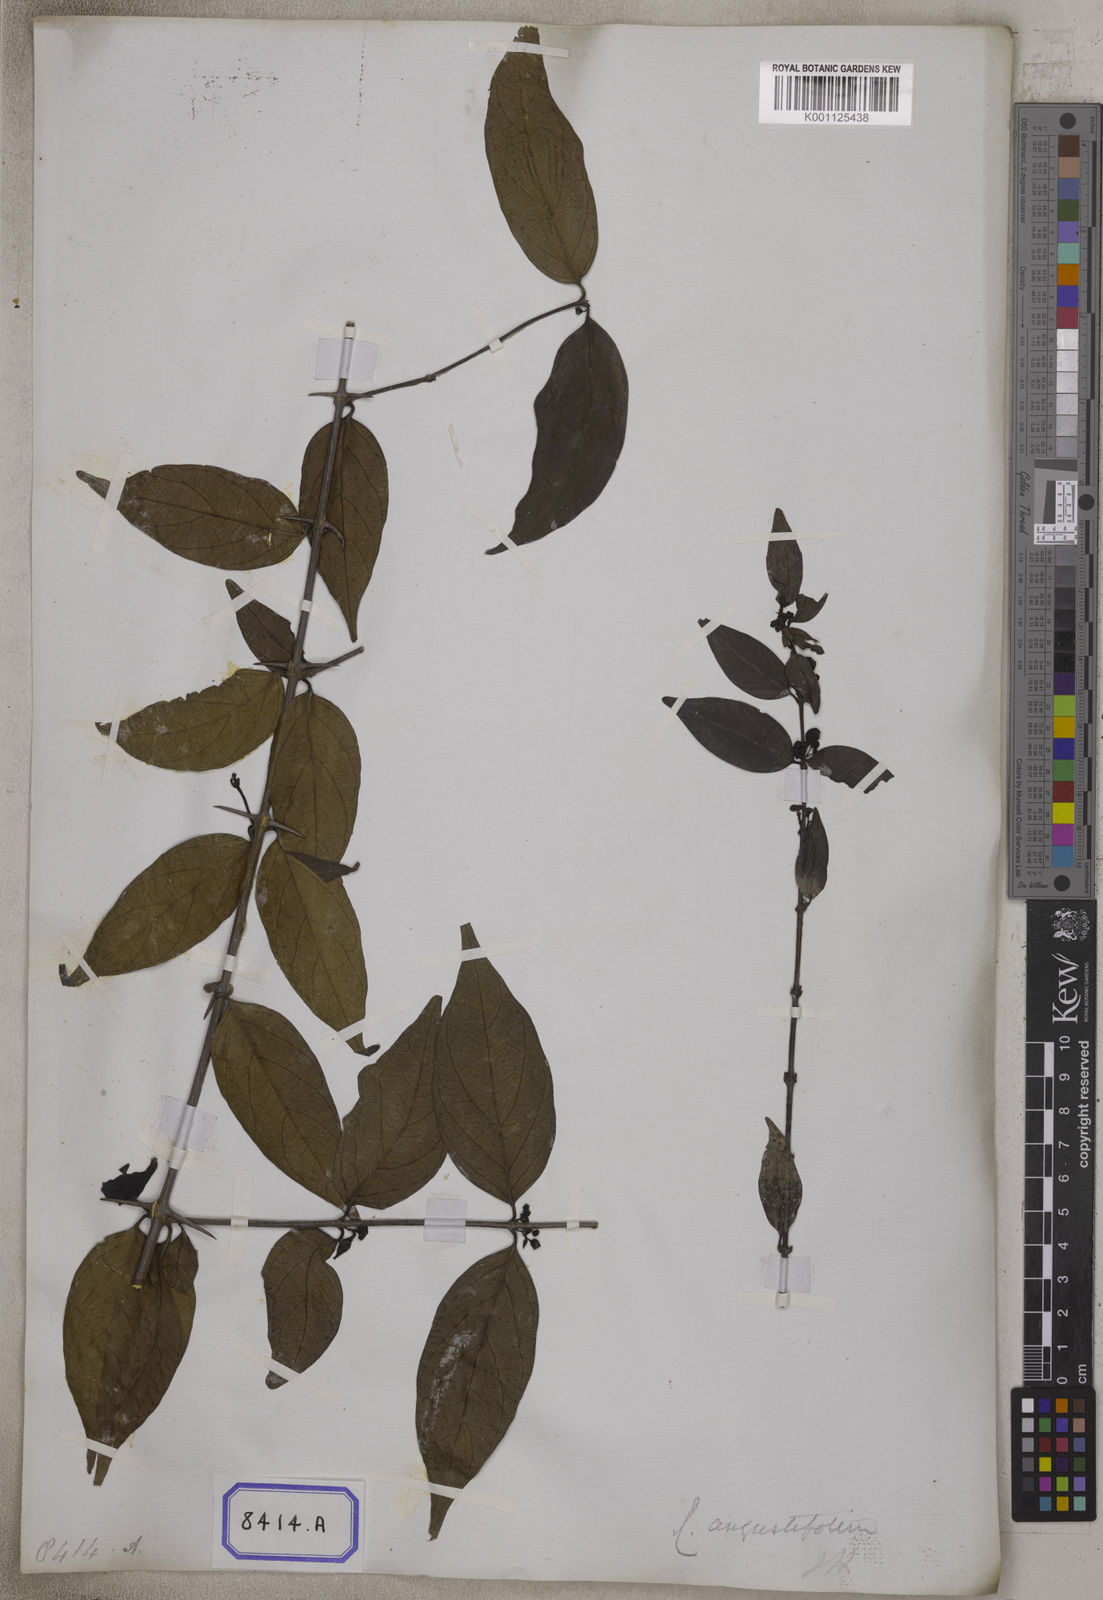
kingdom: Plantae
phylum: Tracheophyta
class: Magnoliopsida
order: Gentianales
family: Rubiaceae
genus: Canthium
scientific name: Canthium angustifolium
